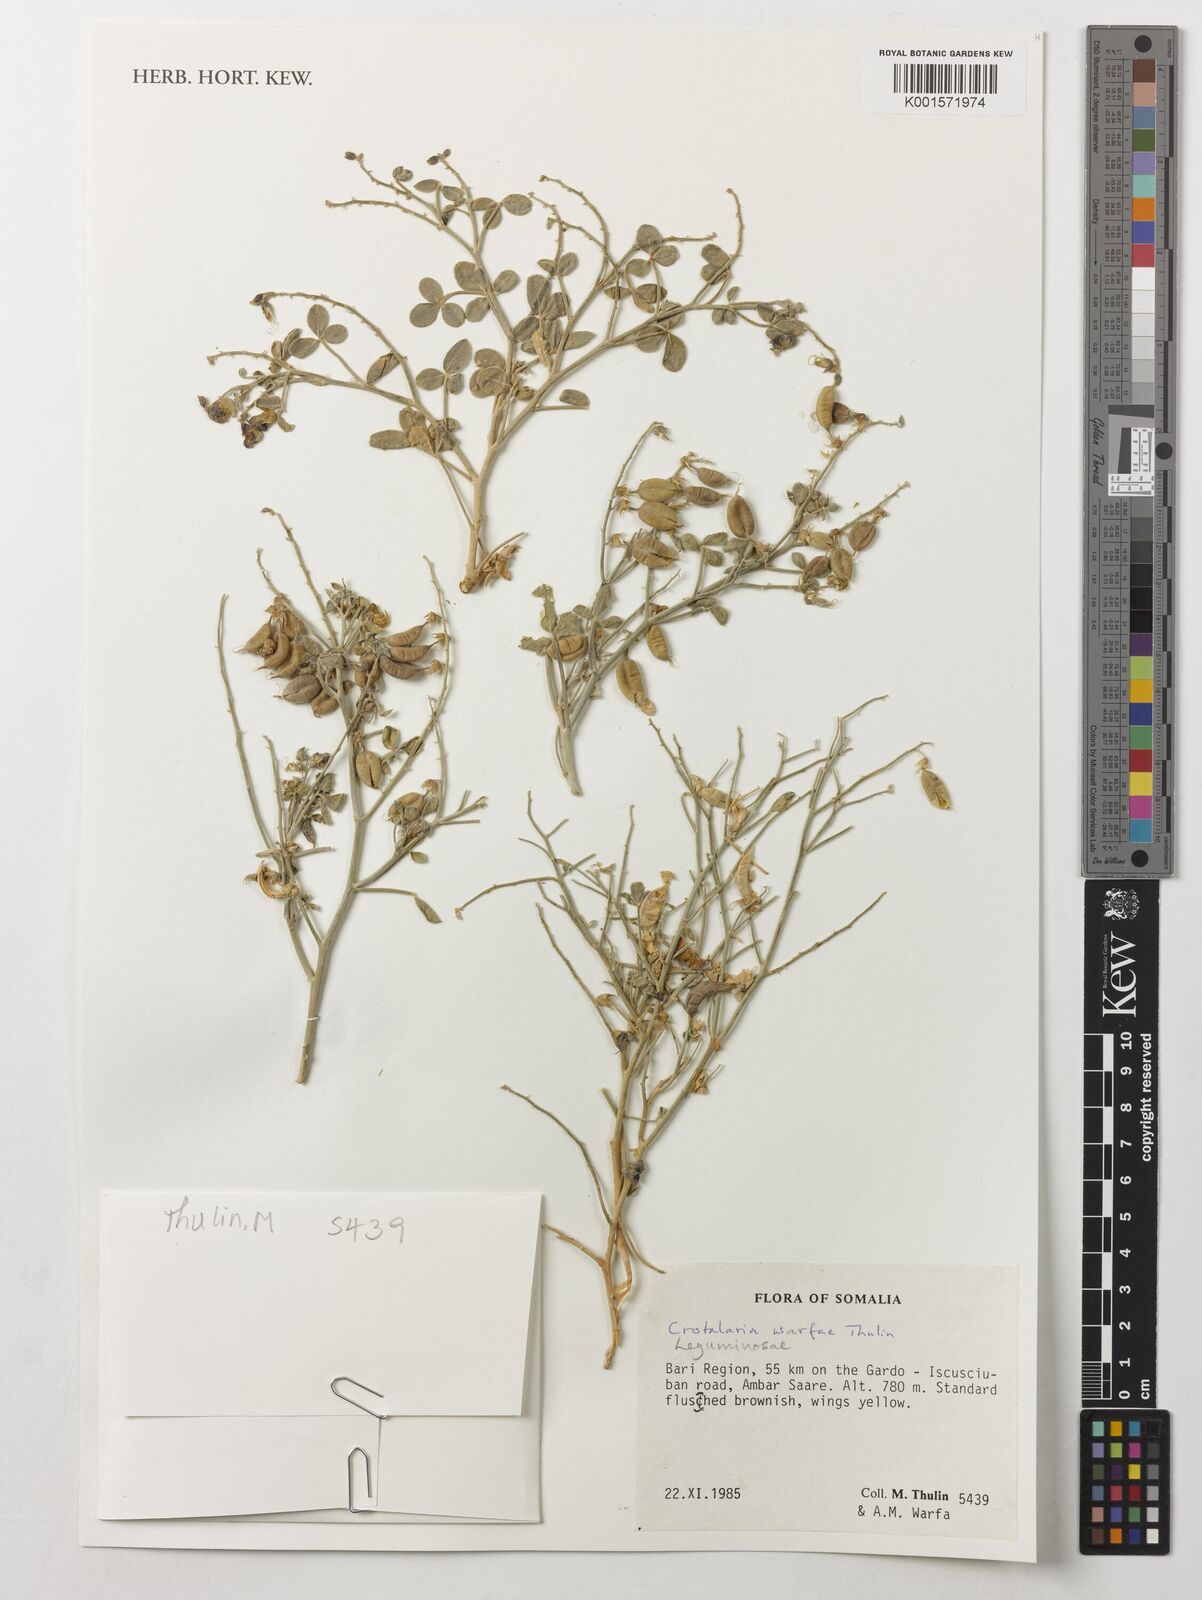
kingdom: Plantae
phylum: Tracheophyta
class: Magnoliopsida
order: Fabales
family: Fabaceae
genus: Crotalaria
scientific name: Crotalaria warfae
